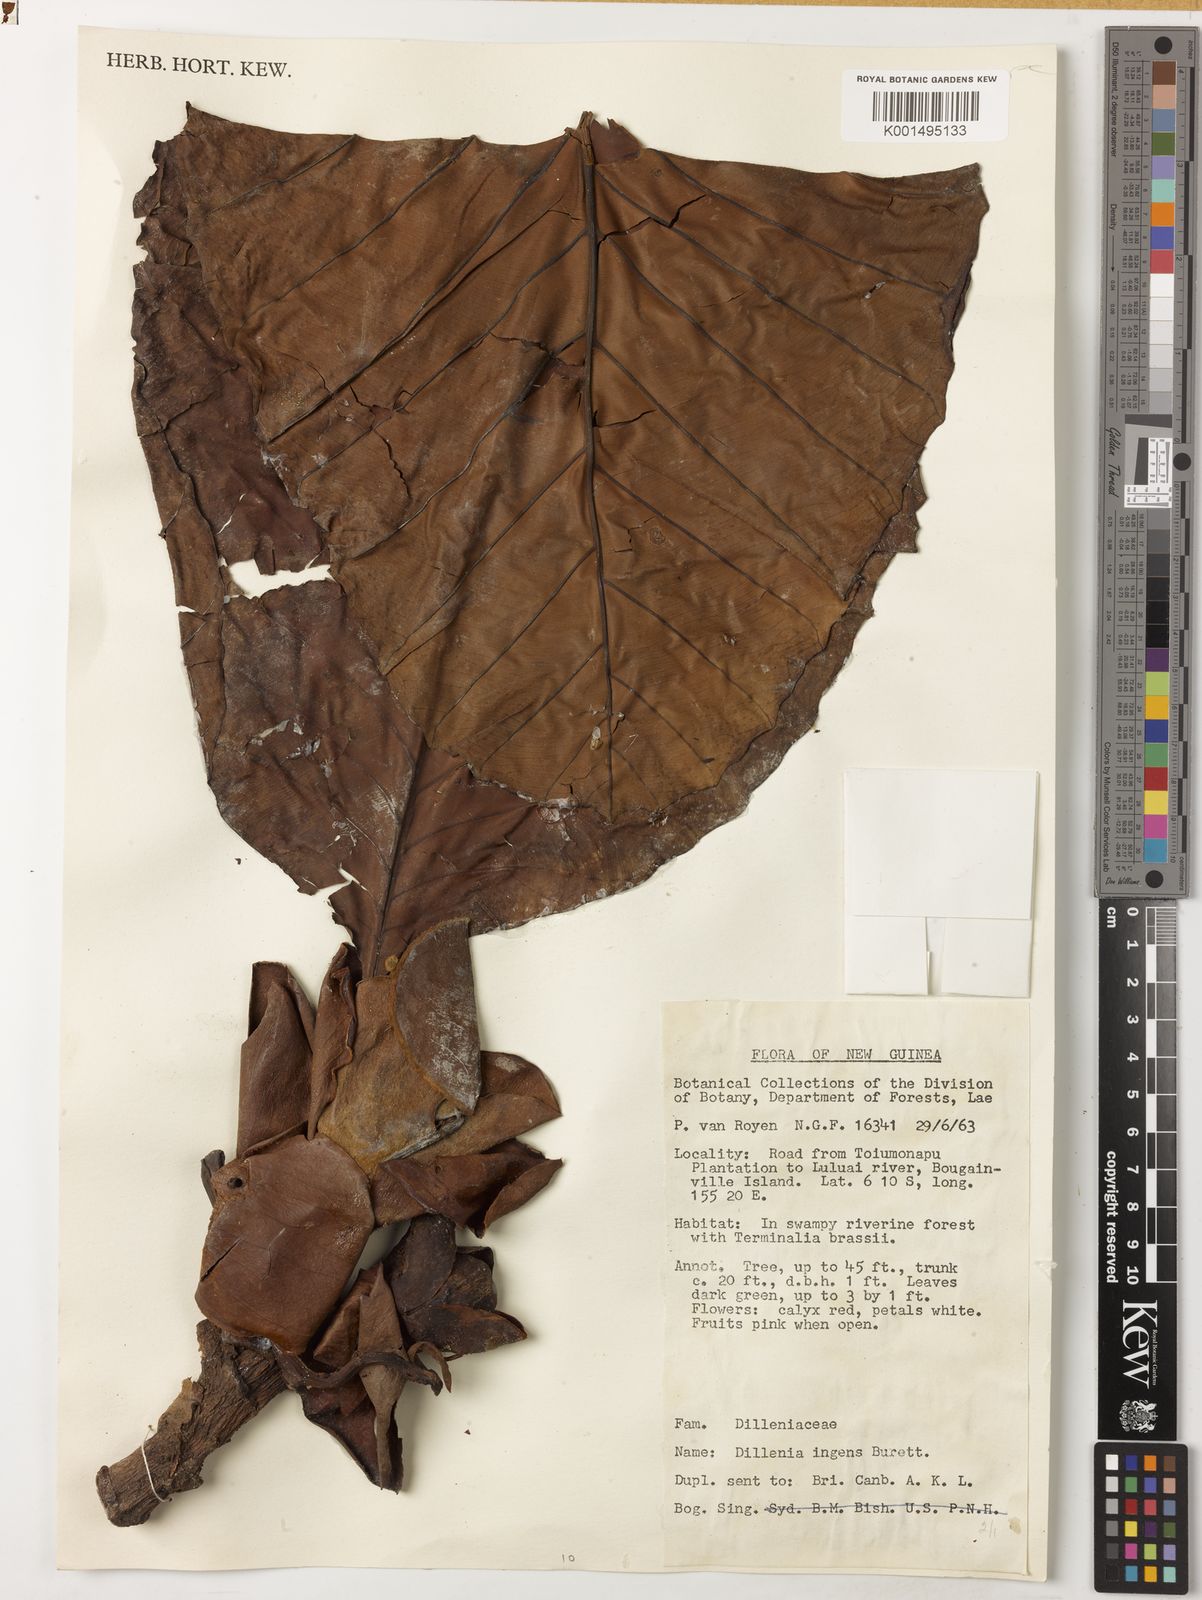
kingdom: Plantae
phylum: Tracheophyta
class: Magnoliopsida
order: Dilleniales
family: Dilleniaceae
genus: Dillenia
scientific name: Dillenia ingens
